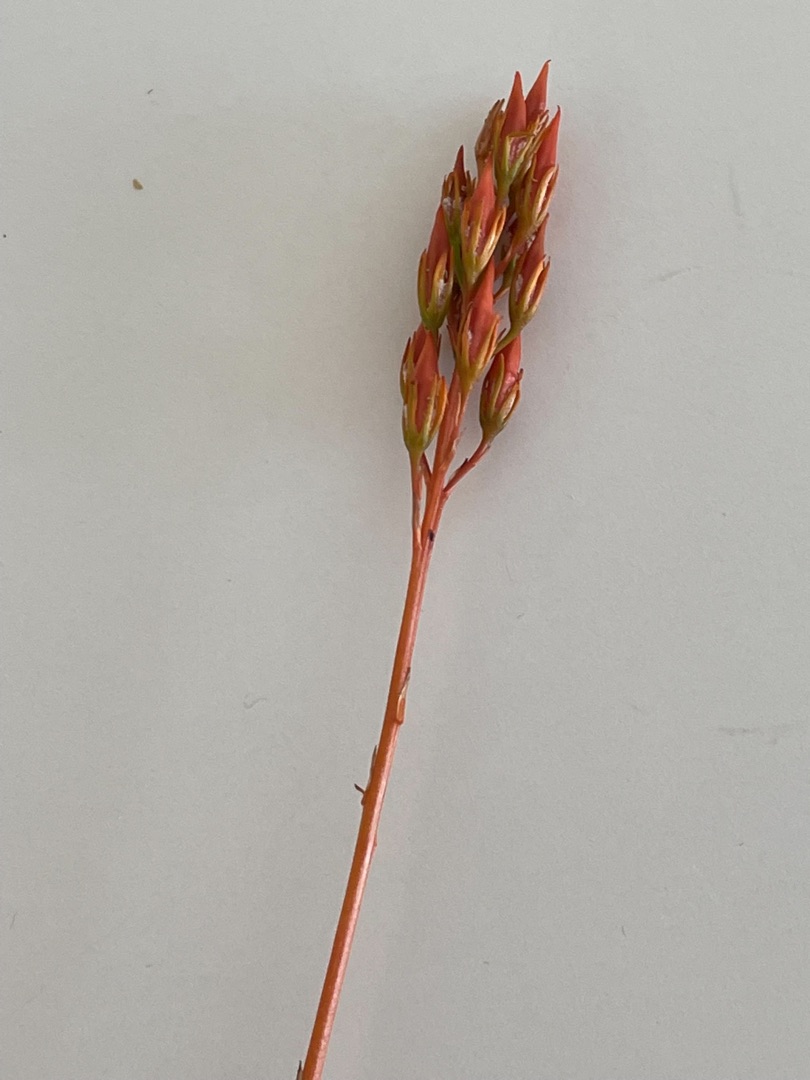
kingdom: Plantae
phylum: Tracheophyta
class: Liliopsida
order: Dioscoreales
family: Nartheciaceae
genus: Narthecium
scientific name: Narthecium ossifragum
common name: Benbræk
